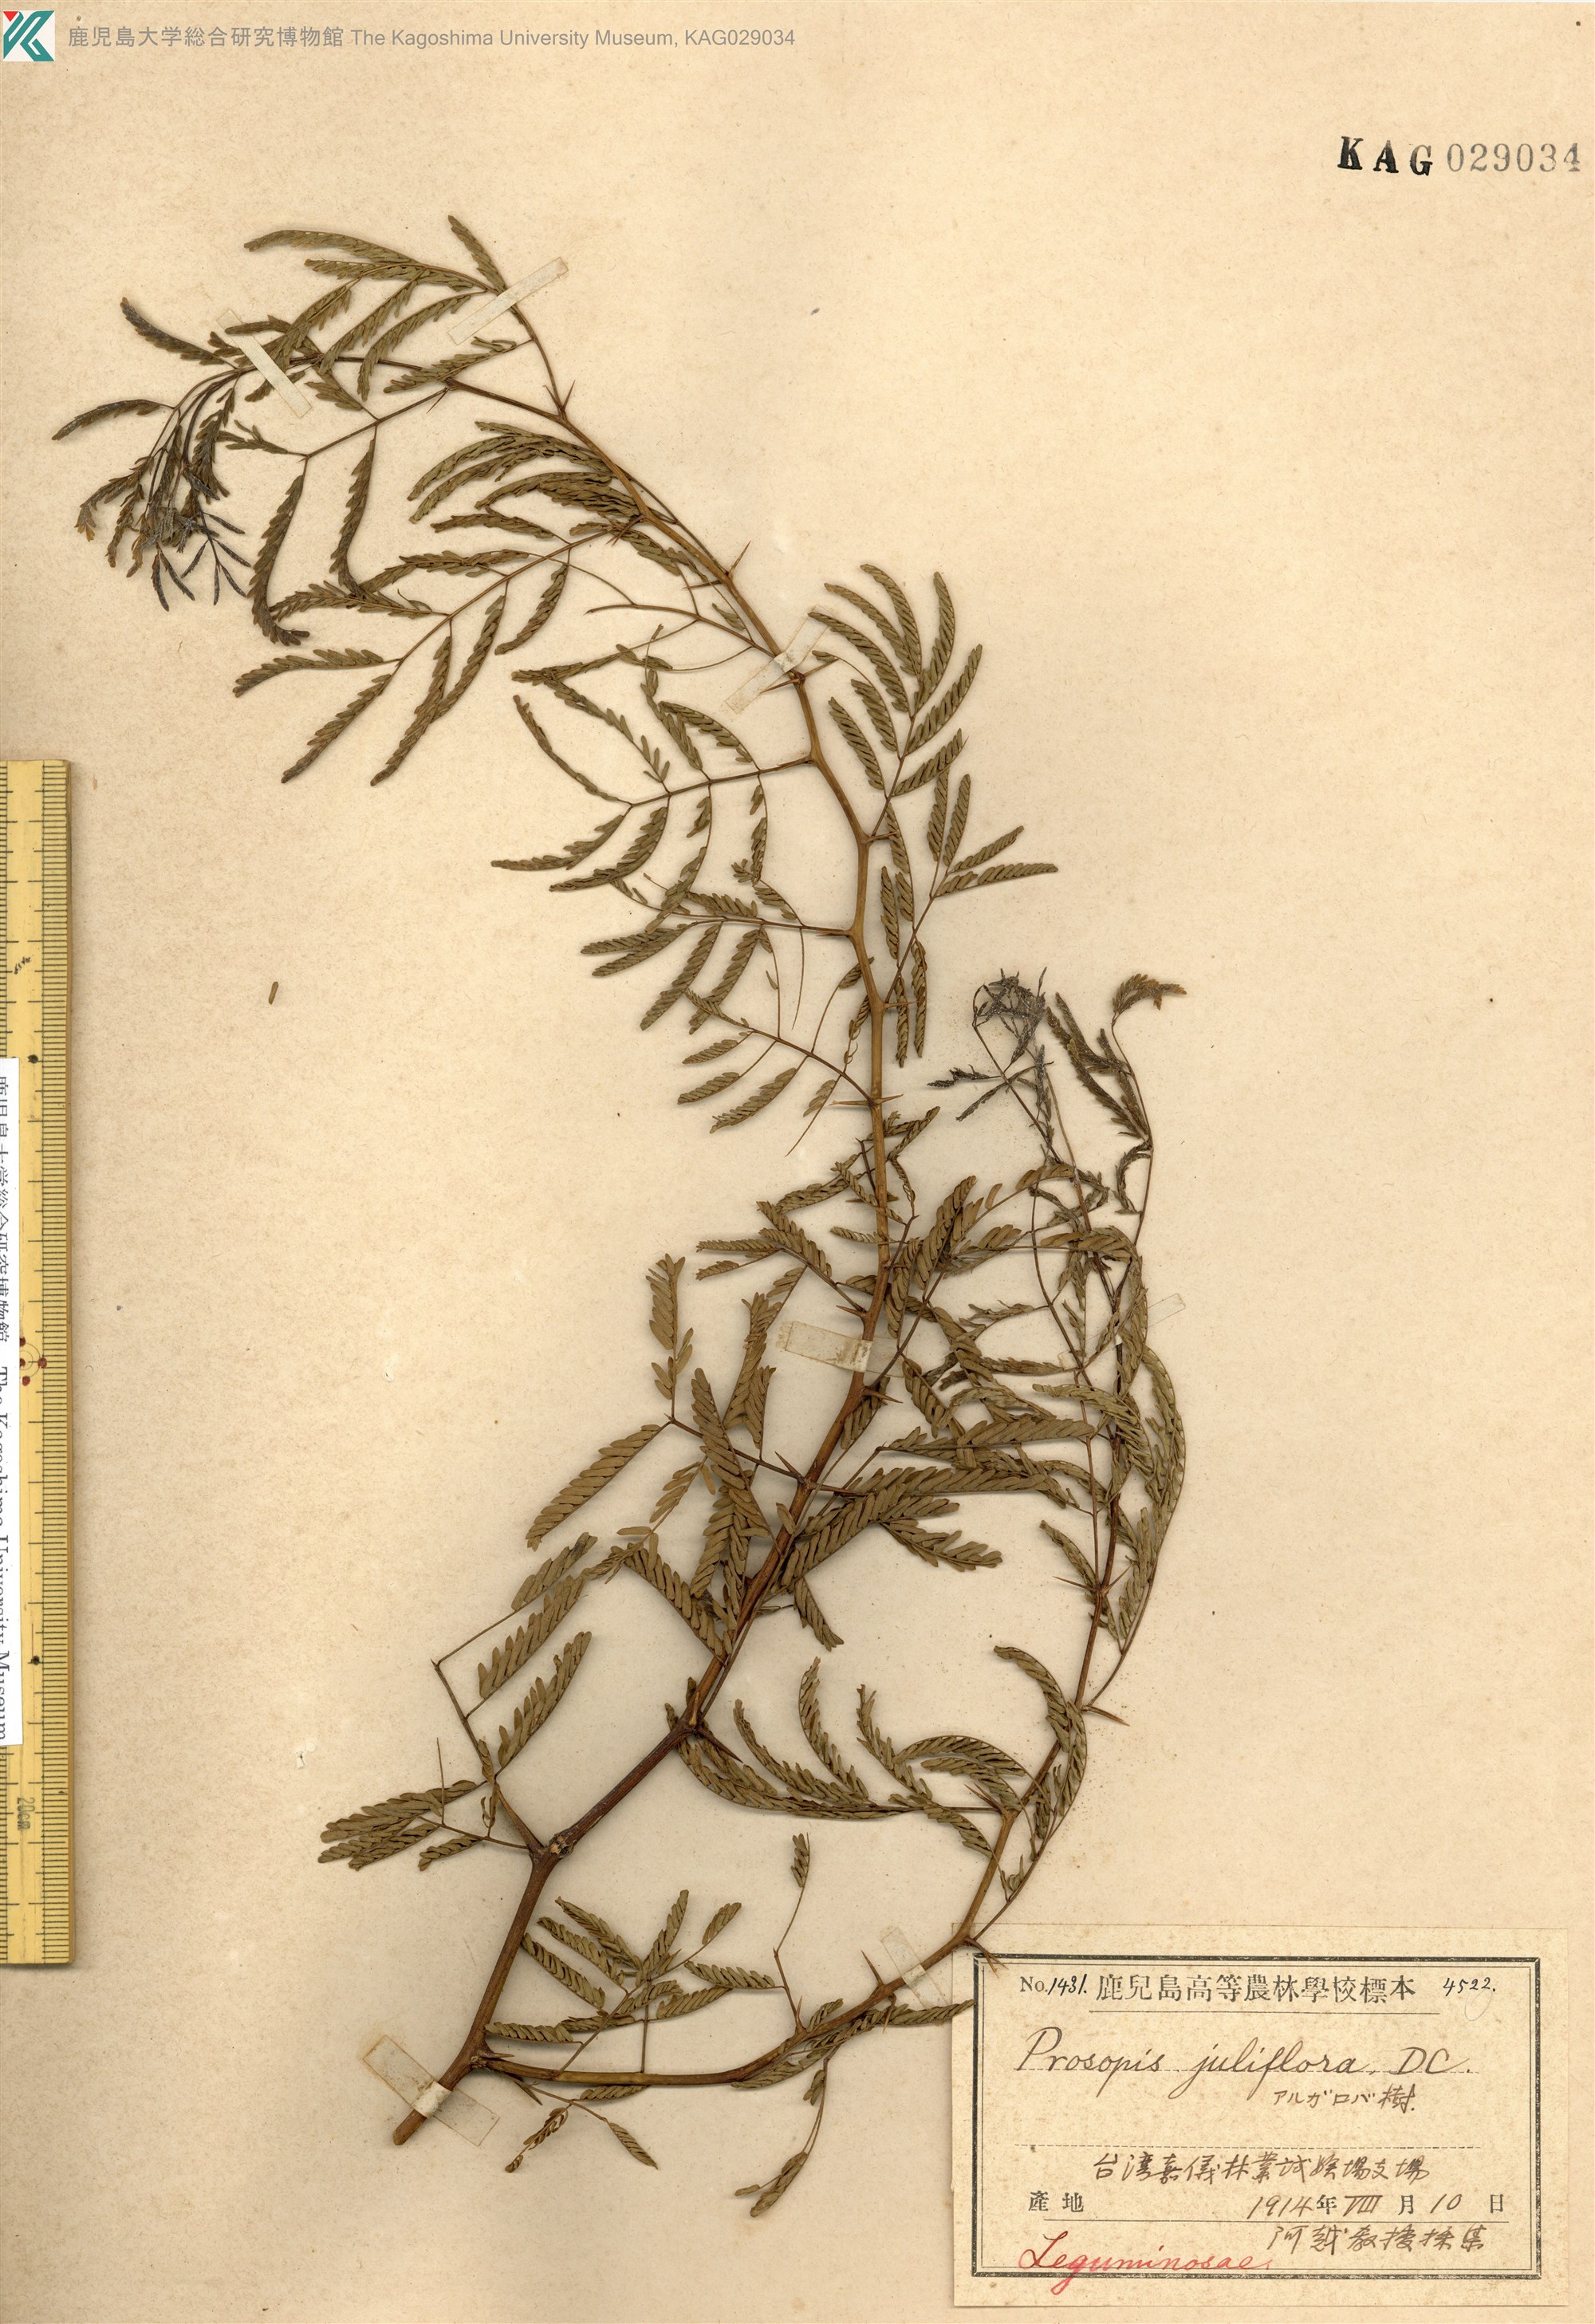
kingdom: Plantae
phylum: Tracheophyta
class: Magnoliopsida
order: Fabales
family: Fabaceae
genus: Prosopis
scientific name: Prosopis juliflora
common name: Mesquite
